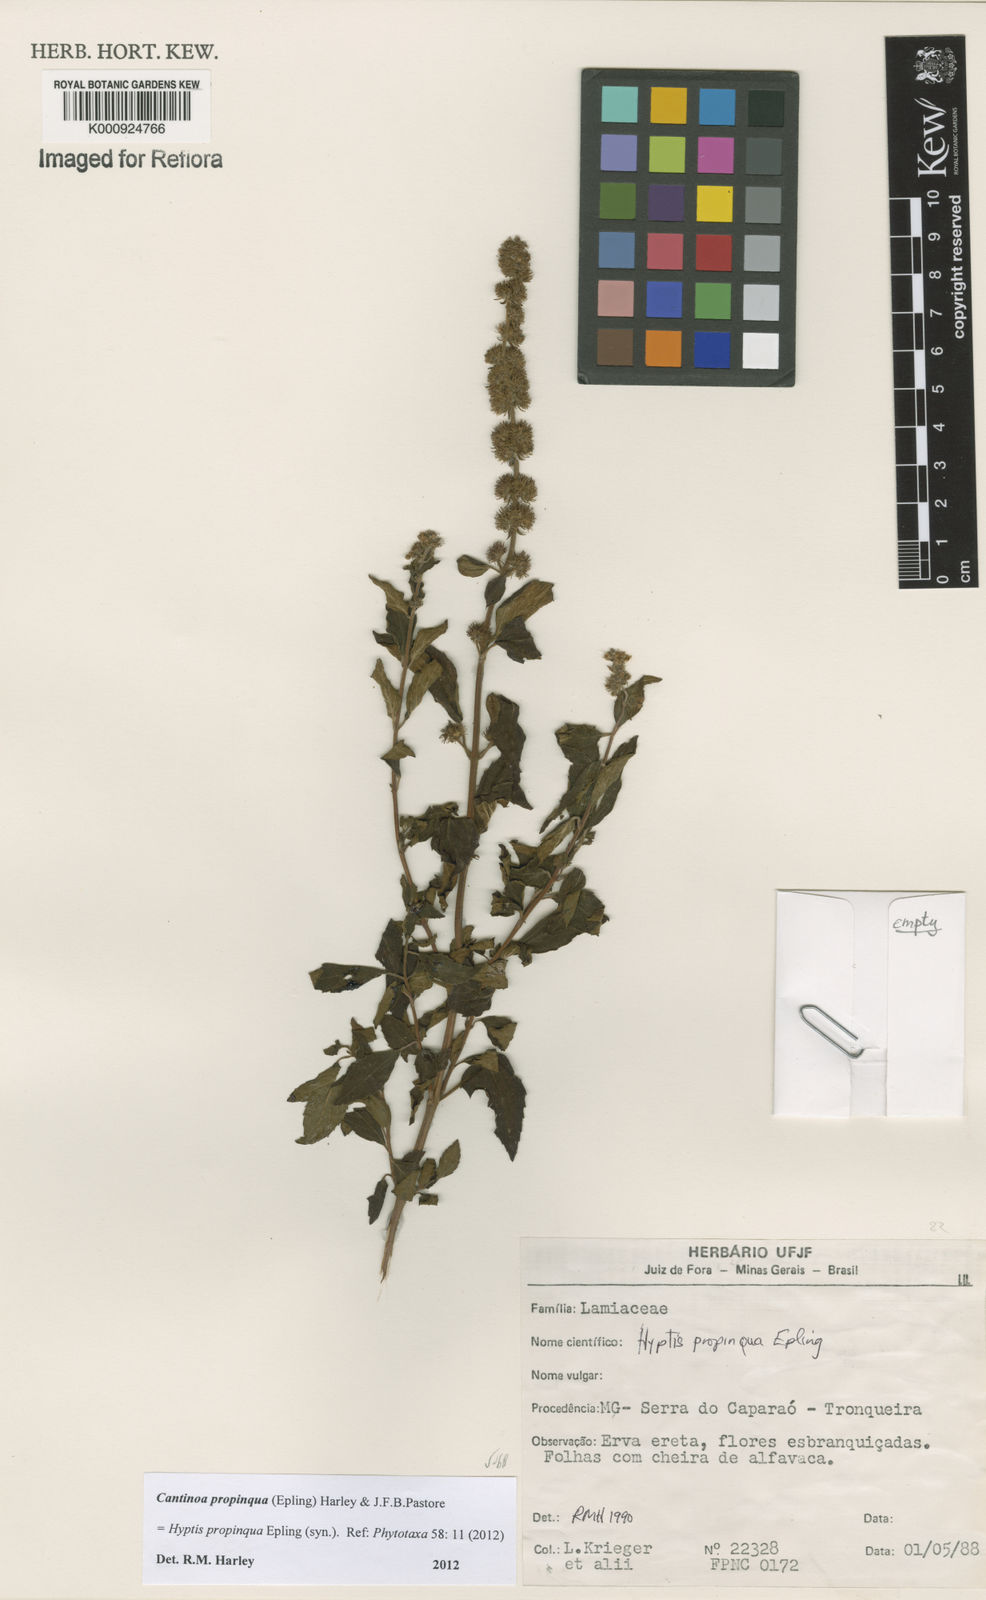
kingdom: Plantae
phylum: Tracheophyta
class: Magnoliopsida
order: Lamiales
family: Lamiaceae
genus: Cantinoa
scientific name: Cantinoa propinqua
